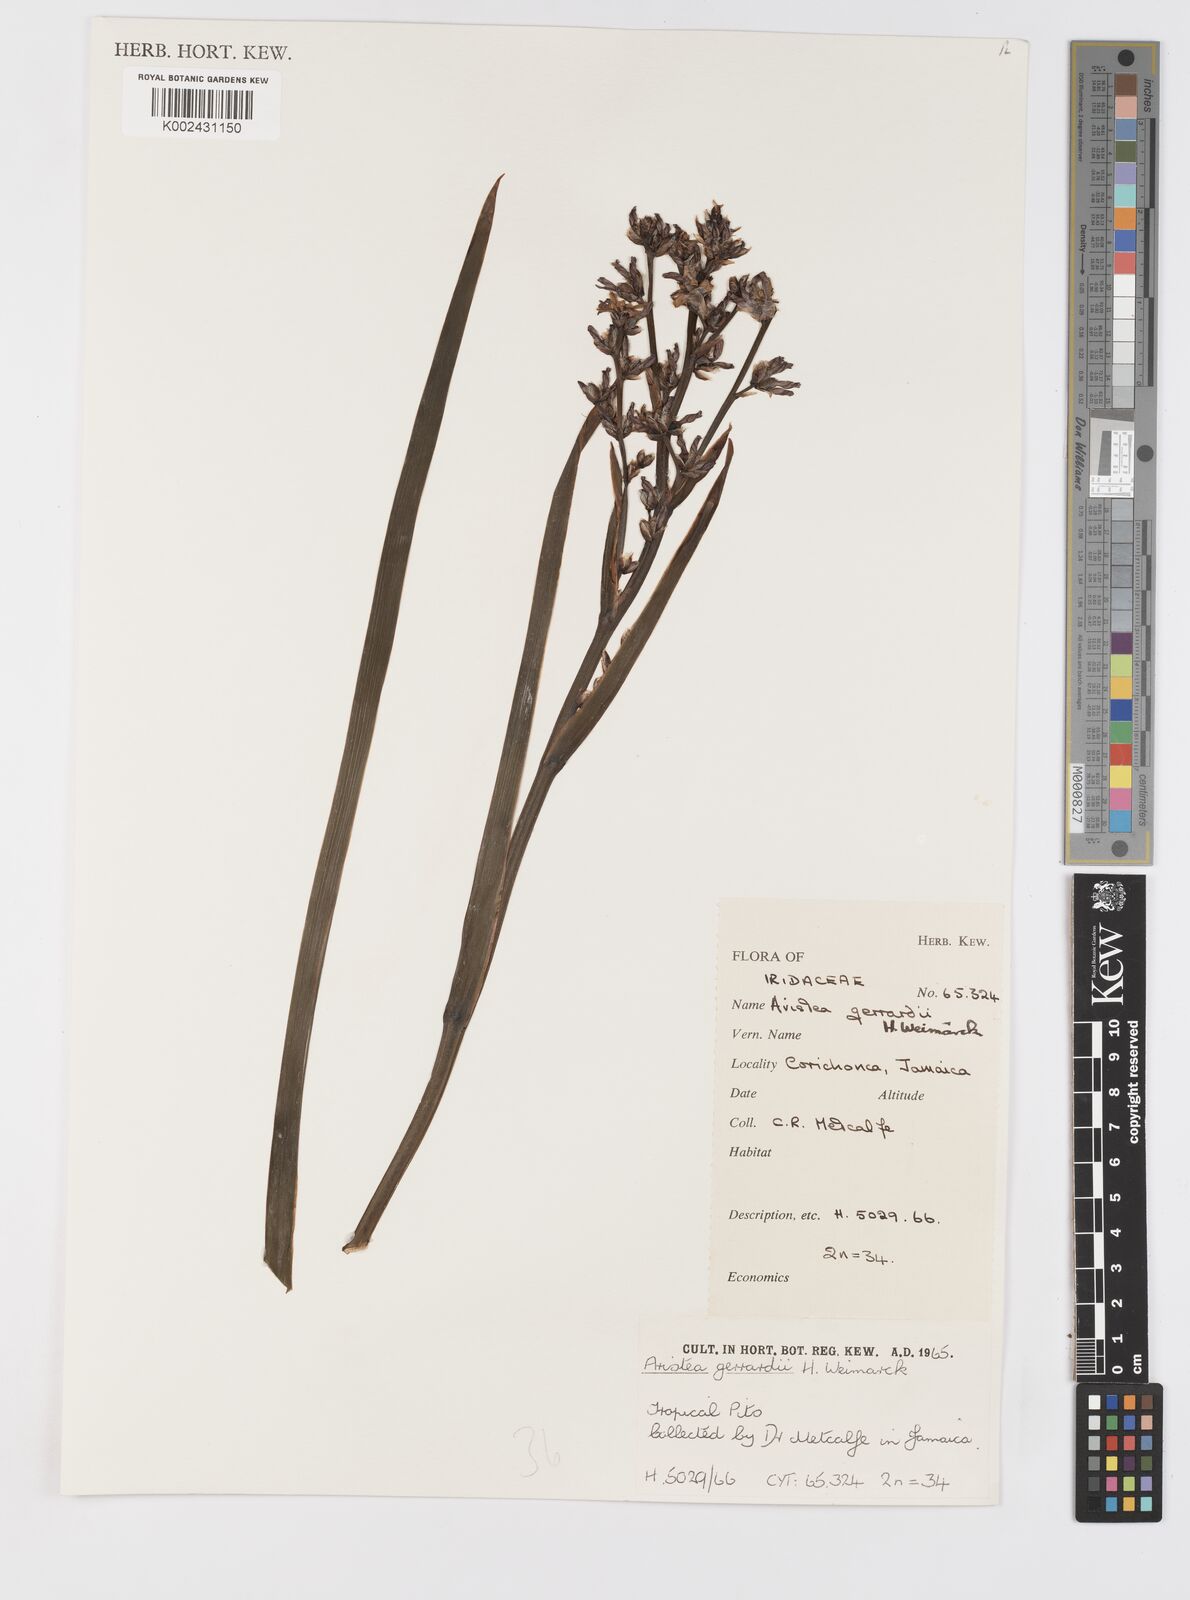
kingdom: Plantae
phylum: Tracheophyta
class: Liliopsida
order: Asparagales
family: Iridaceae
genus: Aristea
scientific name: Aristea compressa
